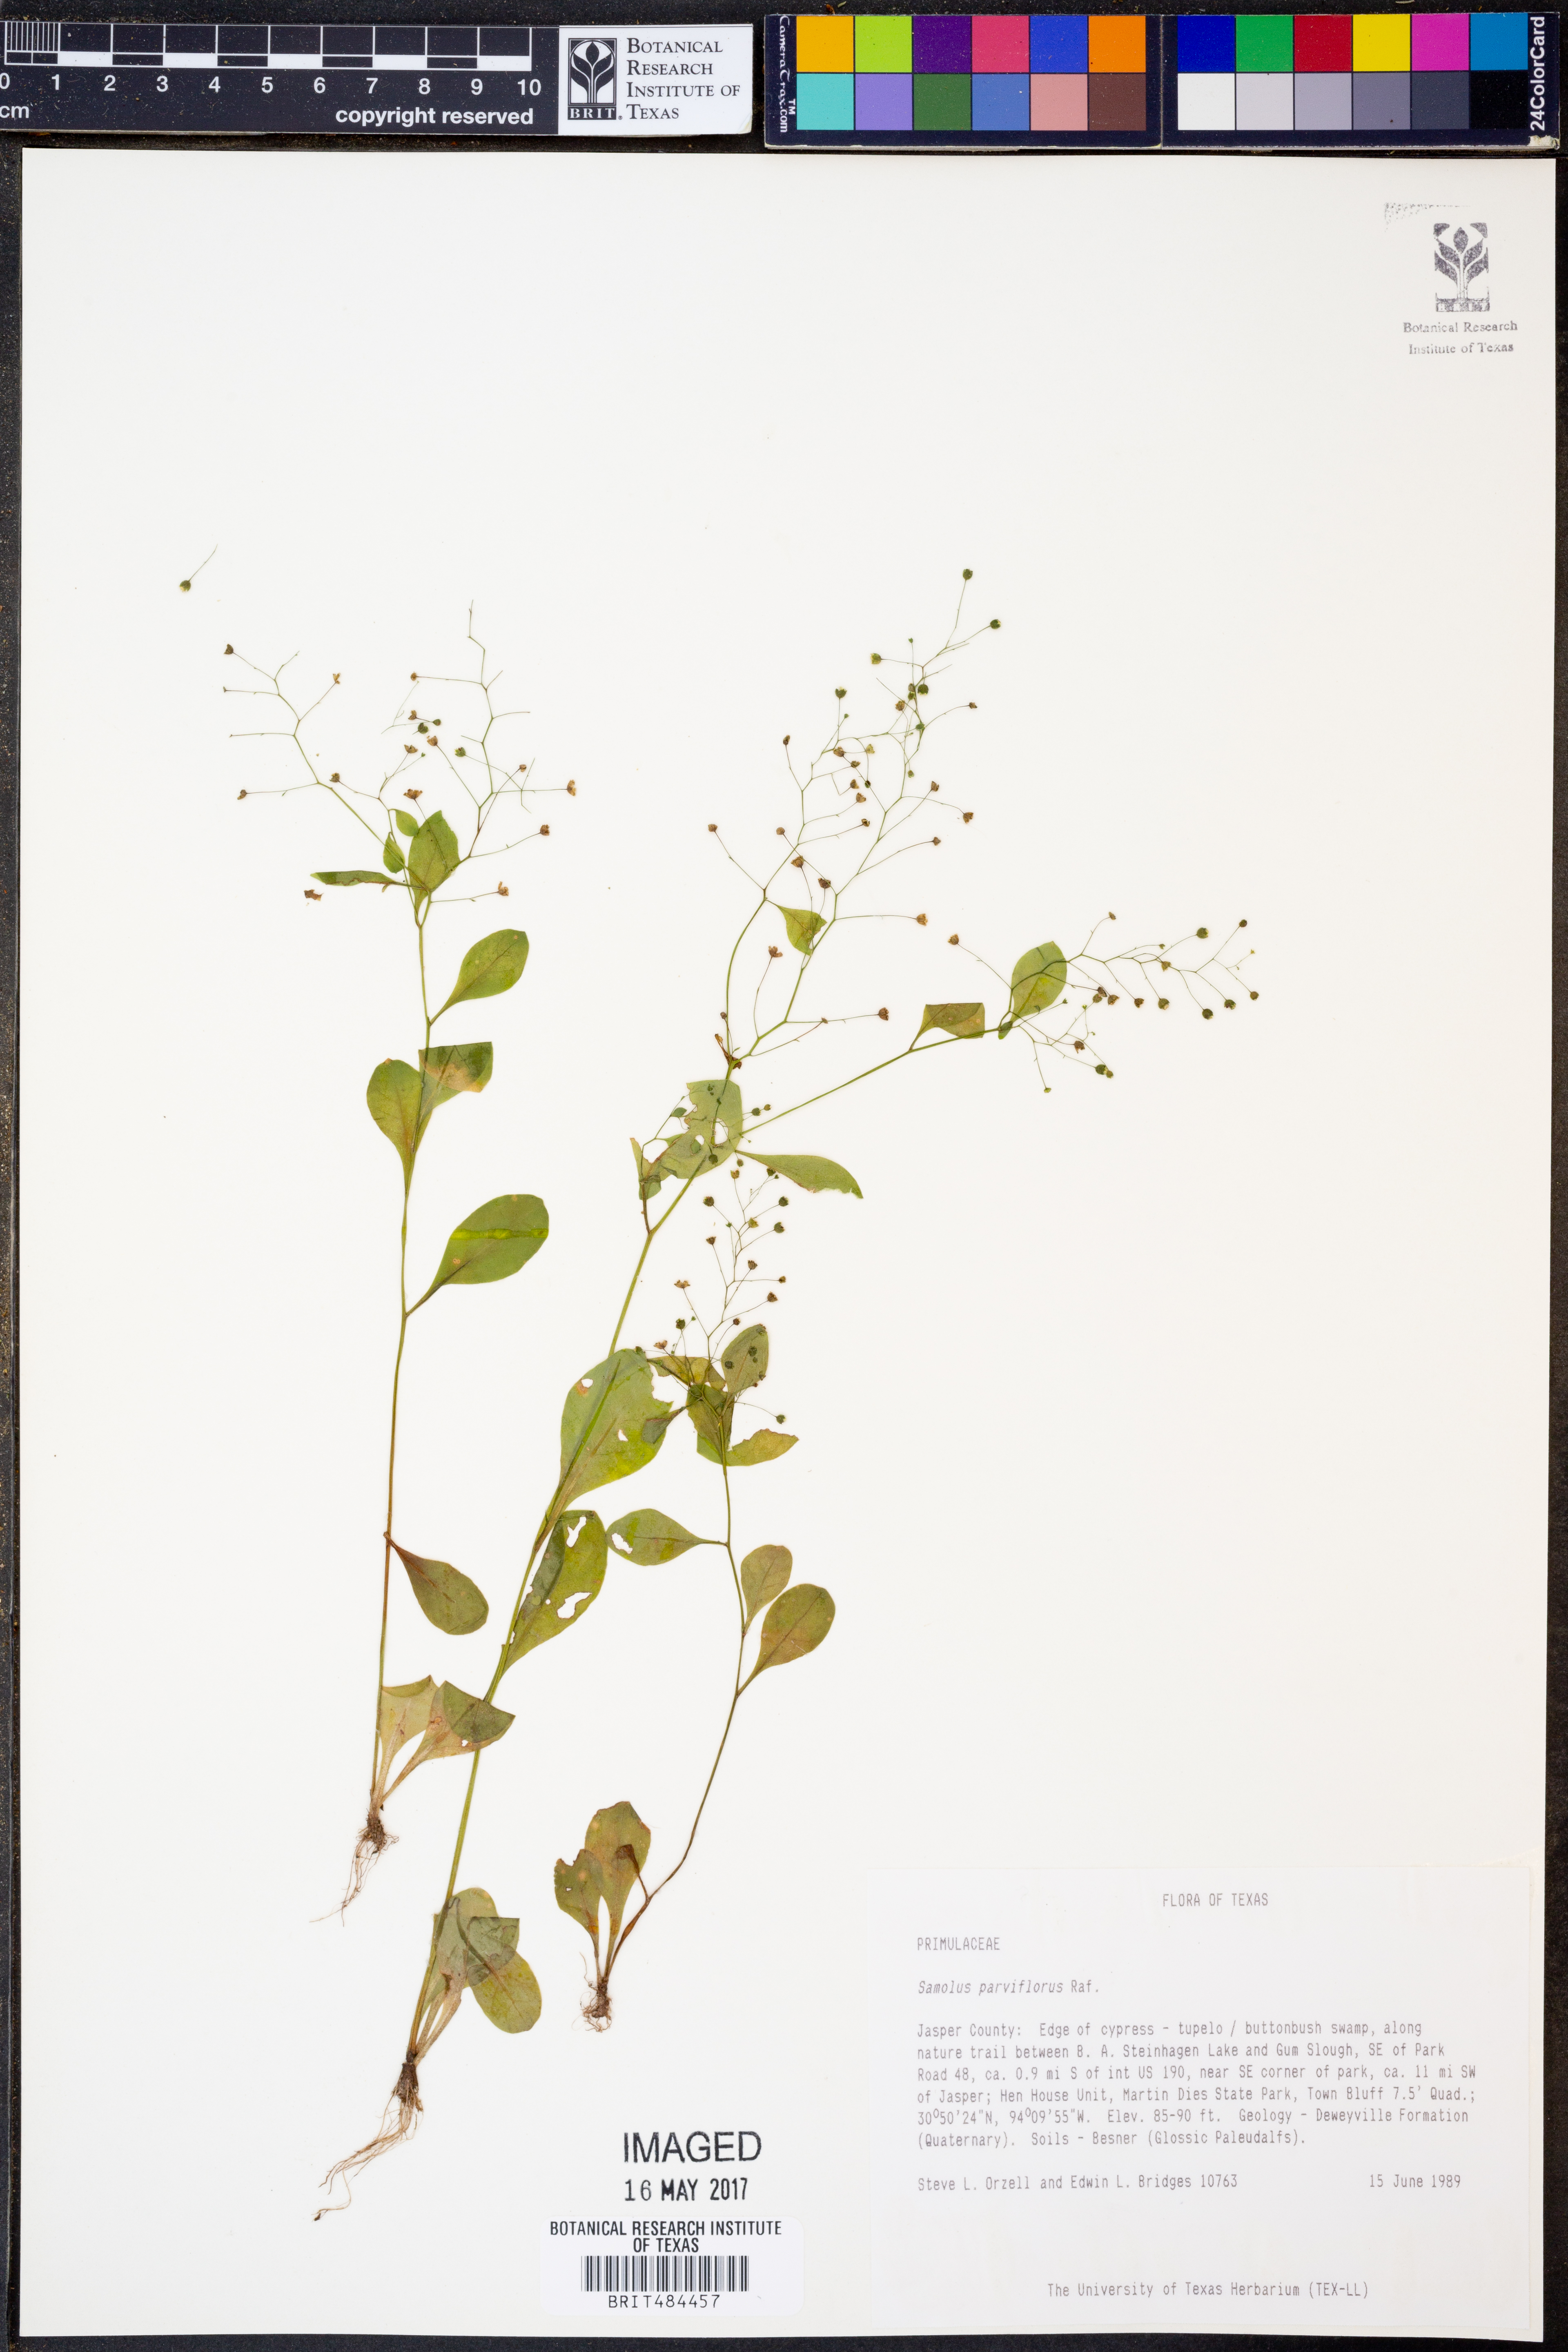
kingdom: Plantae
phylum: Tracheophyta
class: Magnoliopsida
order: Ericales
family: Primulaceae
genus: Samolus
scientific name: Samolus parviflorus
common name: False water pimpernel
